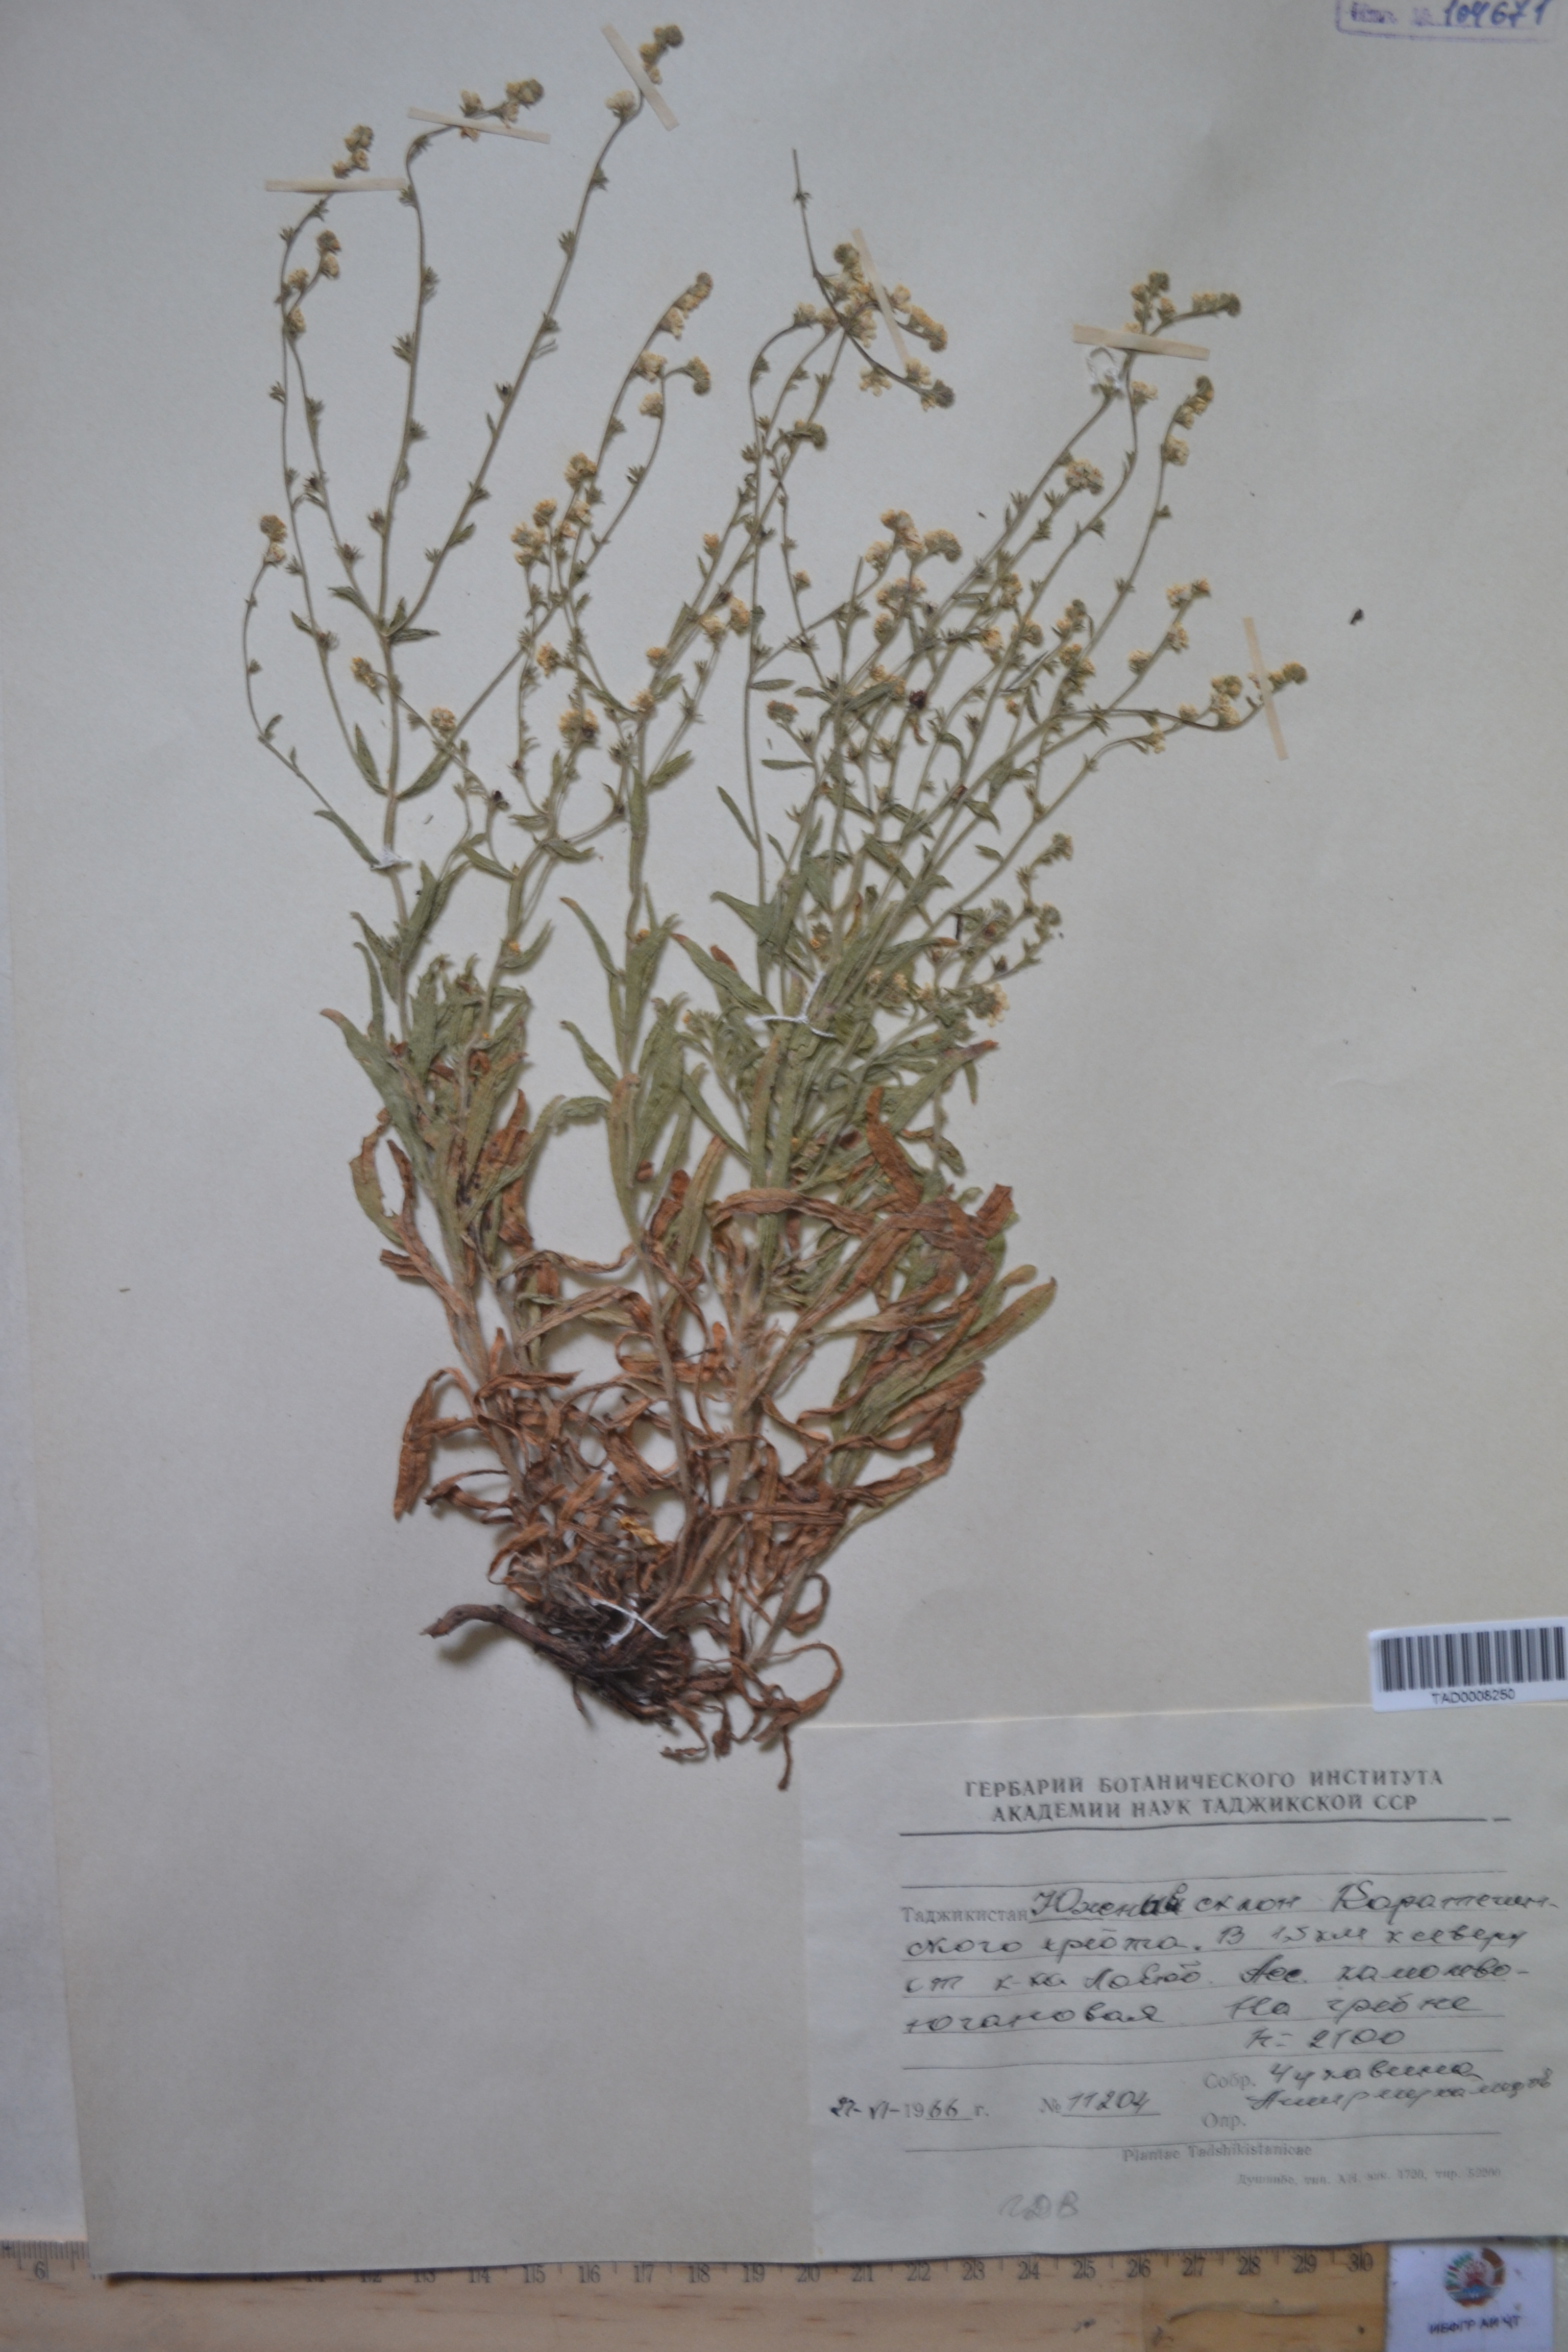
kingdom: Plantae
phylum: Tracheophyta
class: Magnoliopsida
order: Boraginales
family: Boraginaceae
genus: Rochelia
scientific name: Rochelia drobovii
